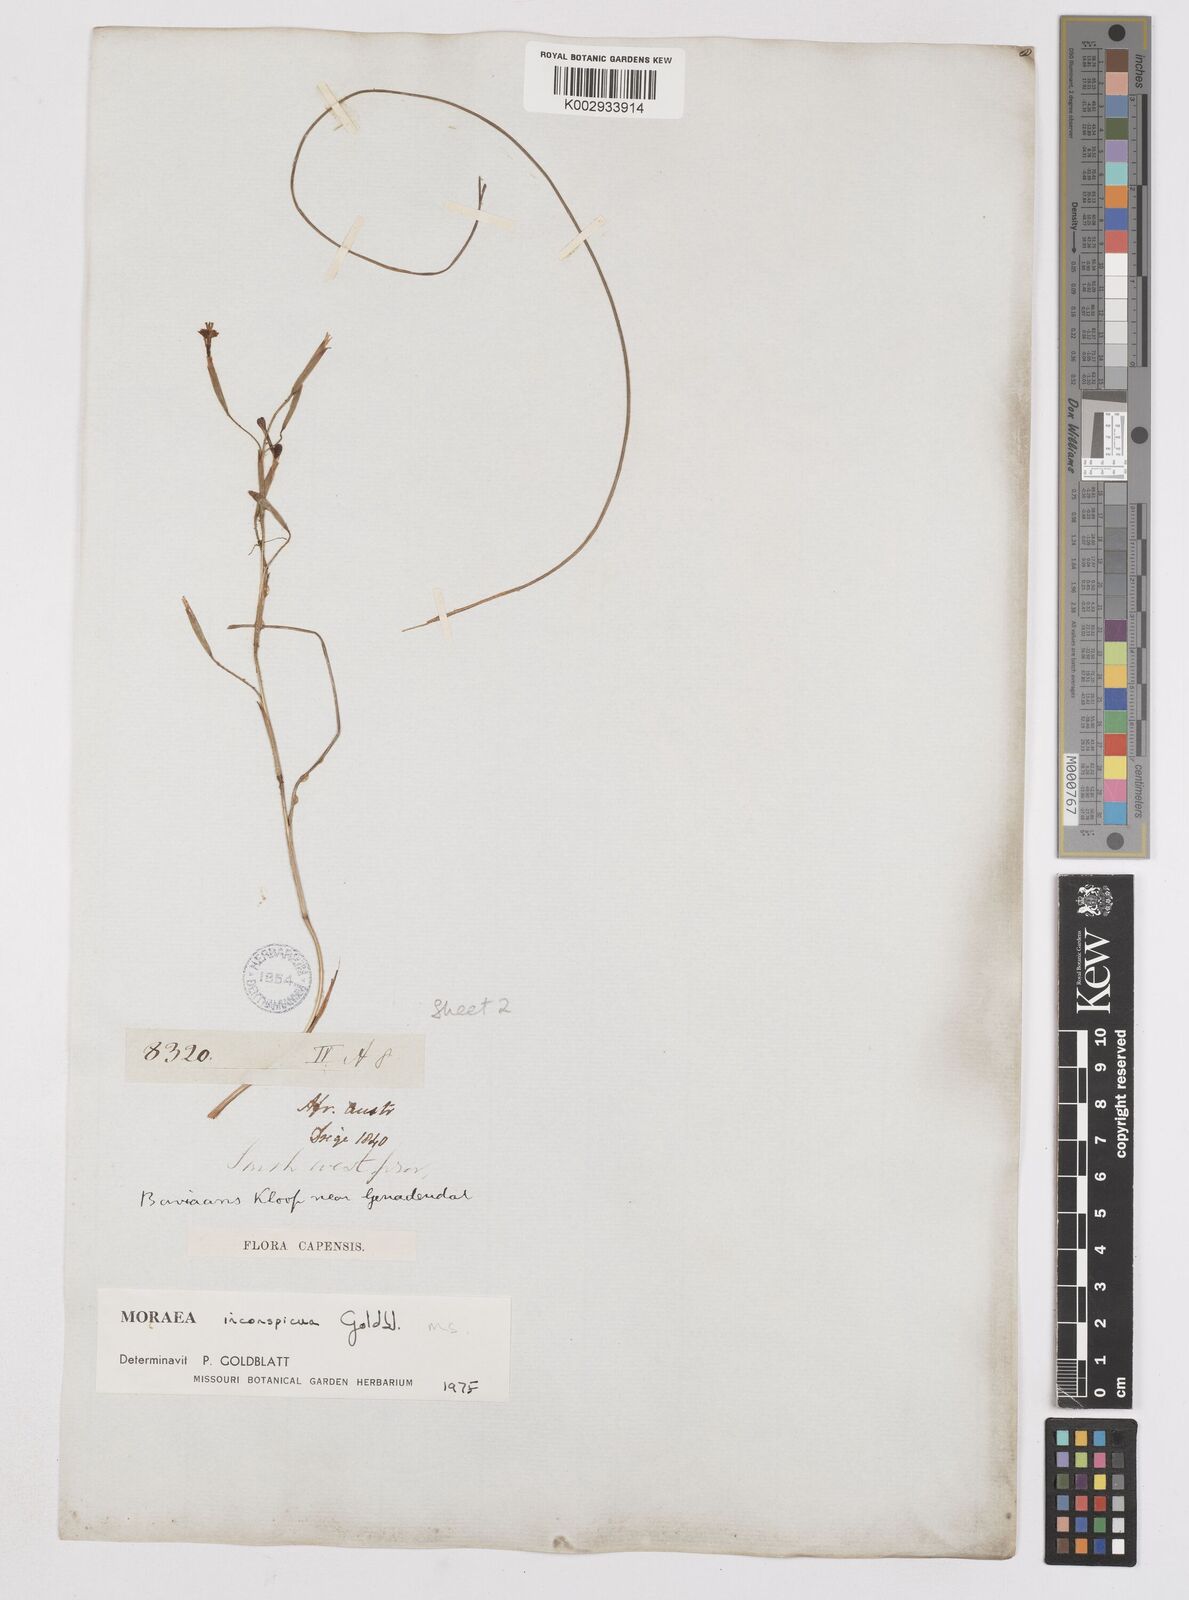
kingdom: Plantae
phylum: Tracheophyta
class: Liliopsida
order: Asparagales
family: Iridaceae
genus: Moraea
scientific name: Moraea inconspicua
